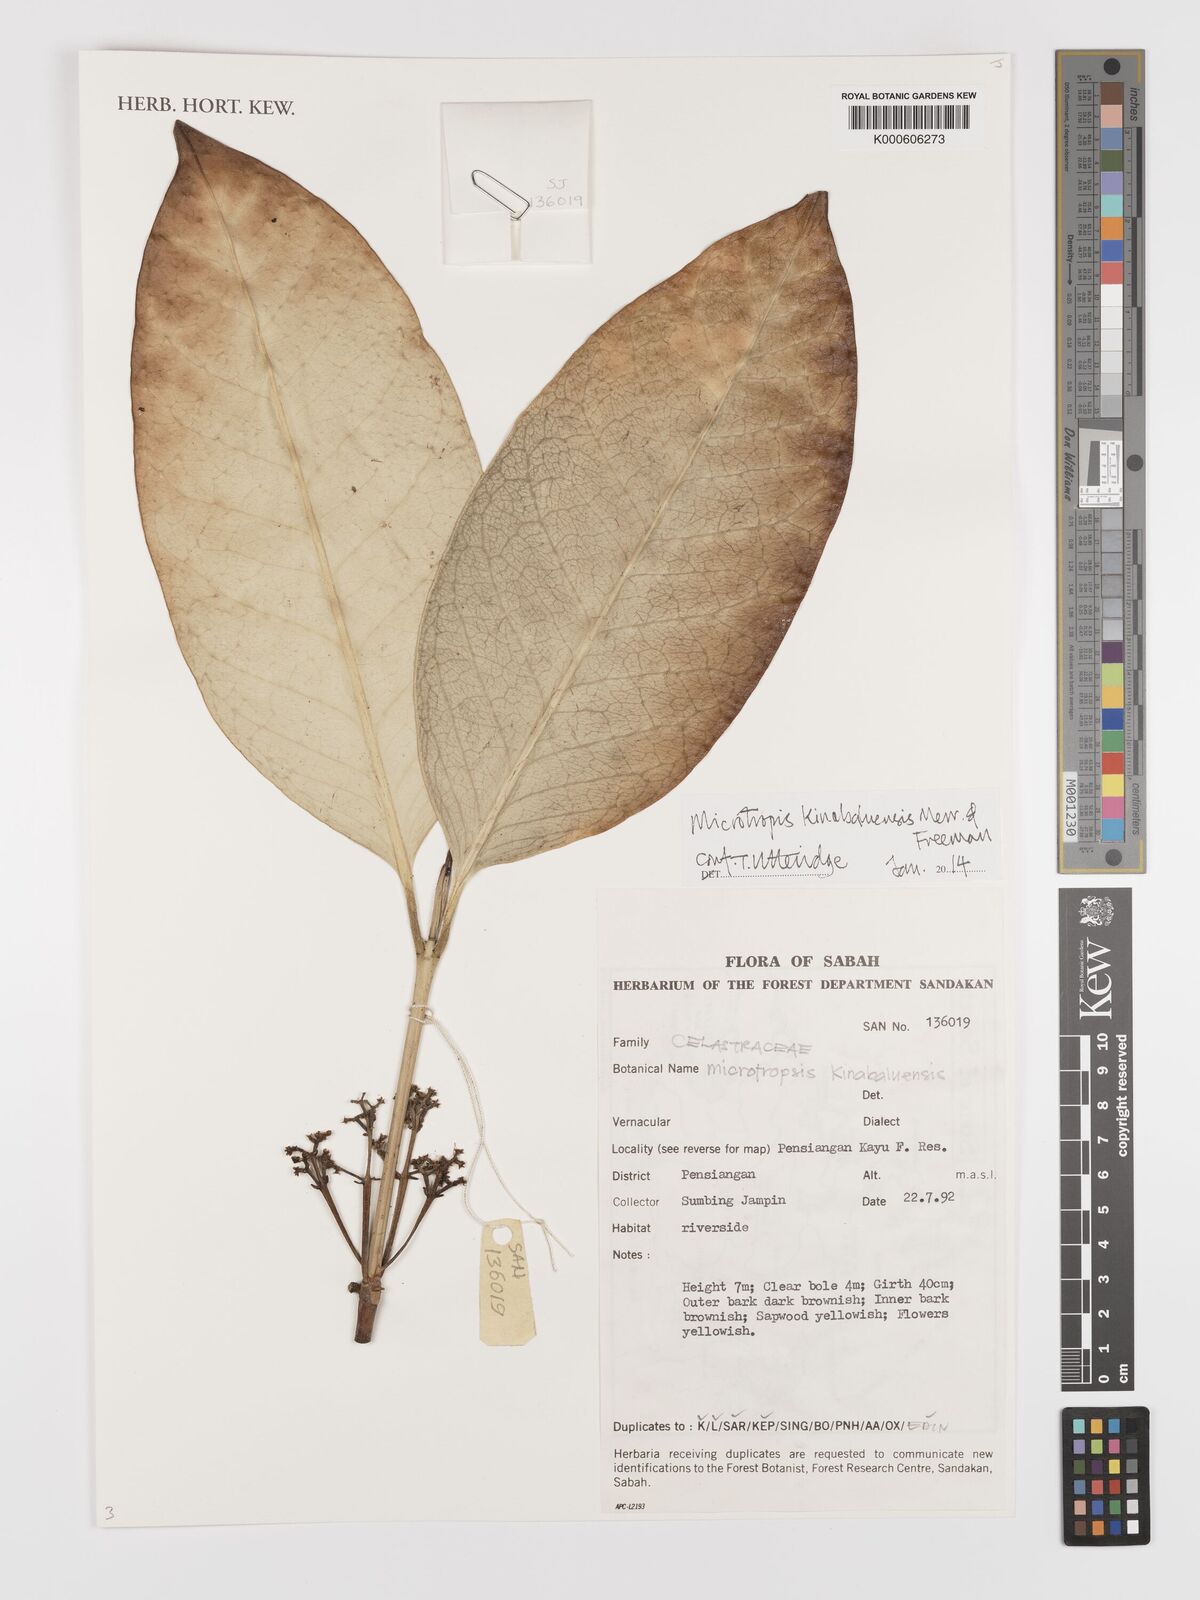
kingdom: Plantae
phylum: Tracheophyta
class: Magnoliopsida
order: Celastrales
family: Celastraceae
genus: Microtropis
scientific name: Microtropis kinabaluensis
